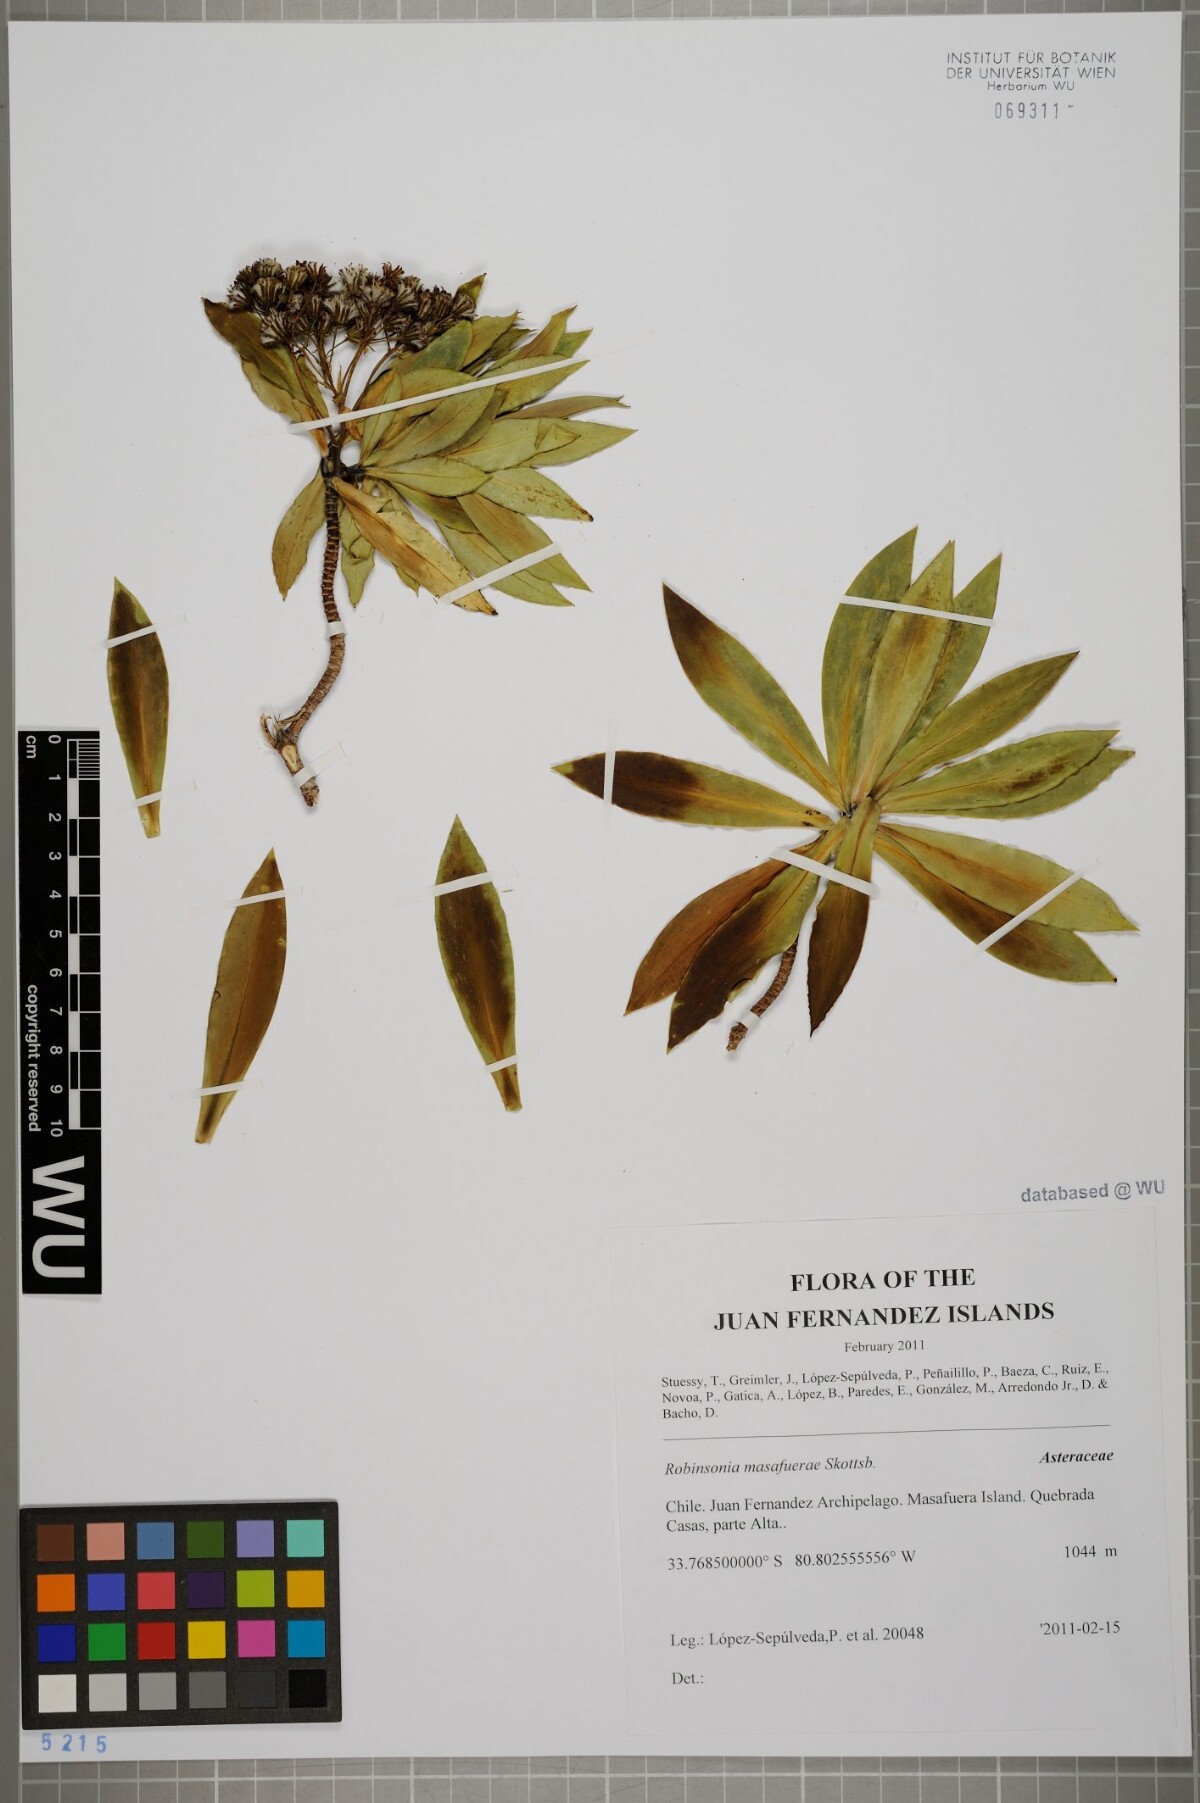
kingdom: Plantae
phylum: Tracheophyta
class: Magnoliopsida
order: Asterales
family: Asteraceae
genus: Robinsonia
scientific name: Robinsonia masafuerae
